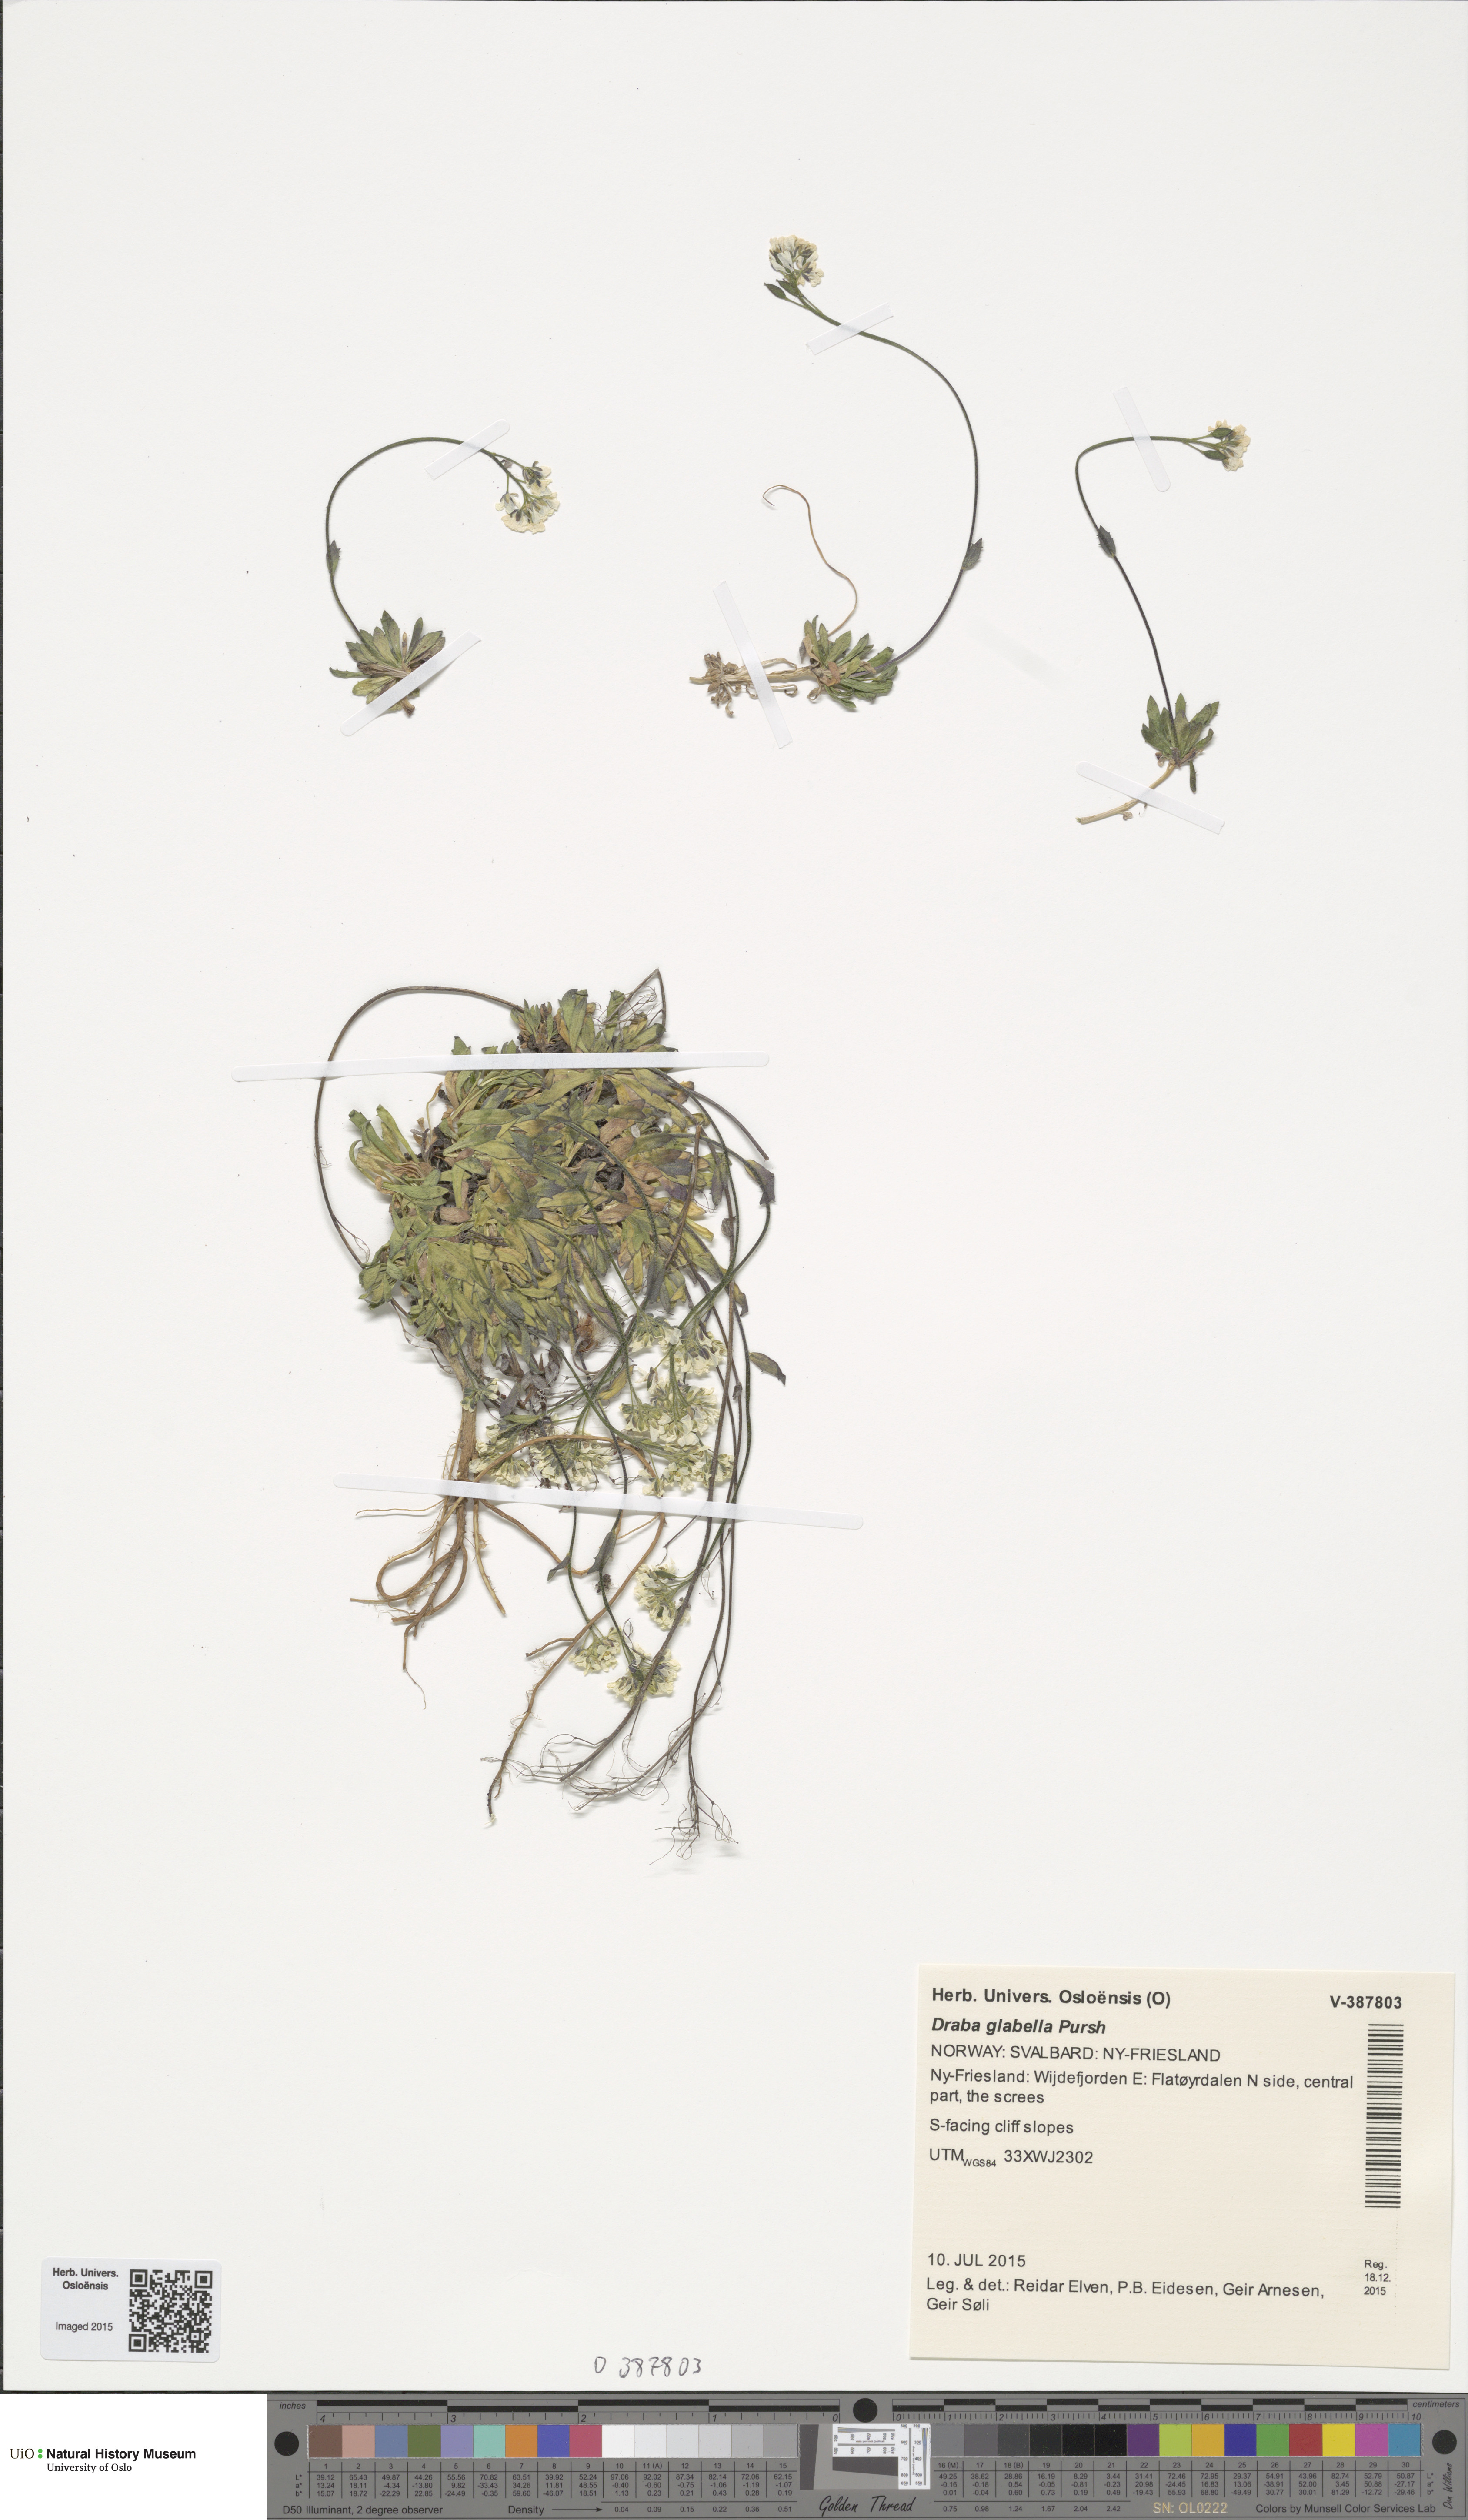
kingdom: Plantae
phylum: Tracheophyta
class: Magnoliopsida
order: Brassicales
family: Brassicaceae
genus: Draba
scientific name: Draba glabella
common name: Glaucous draba
